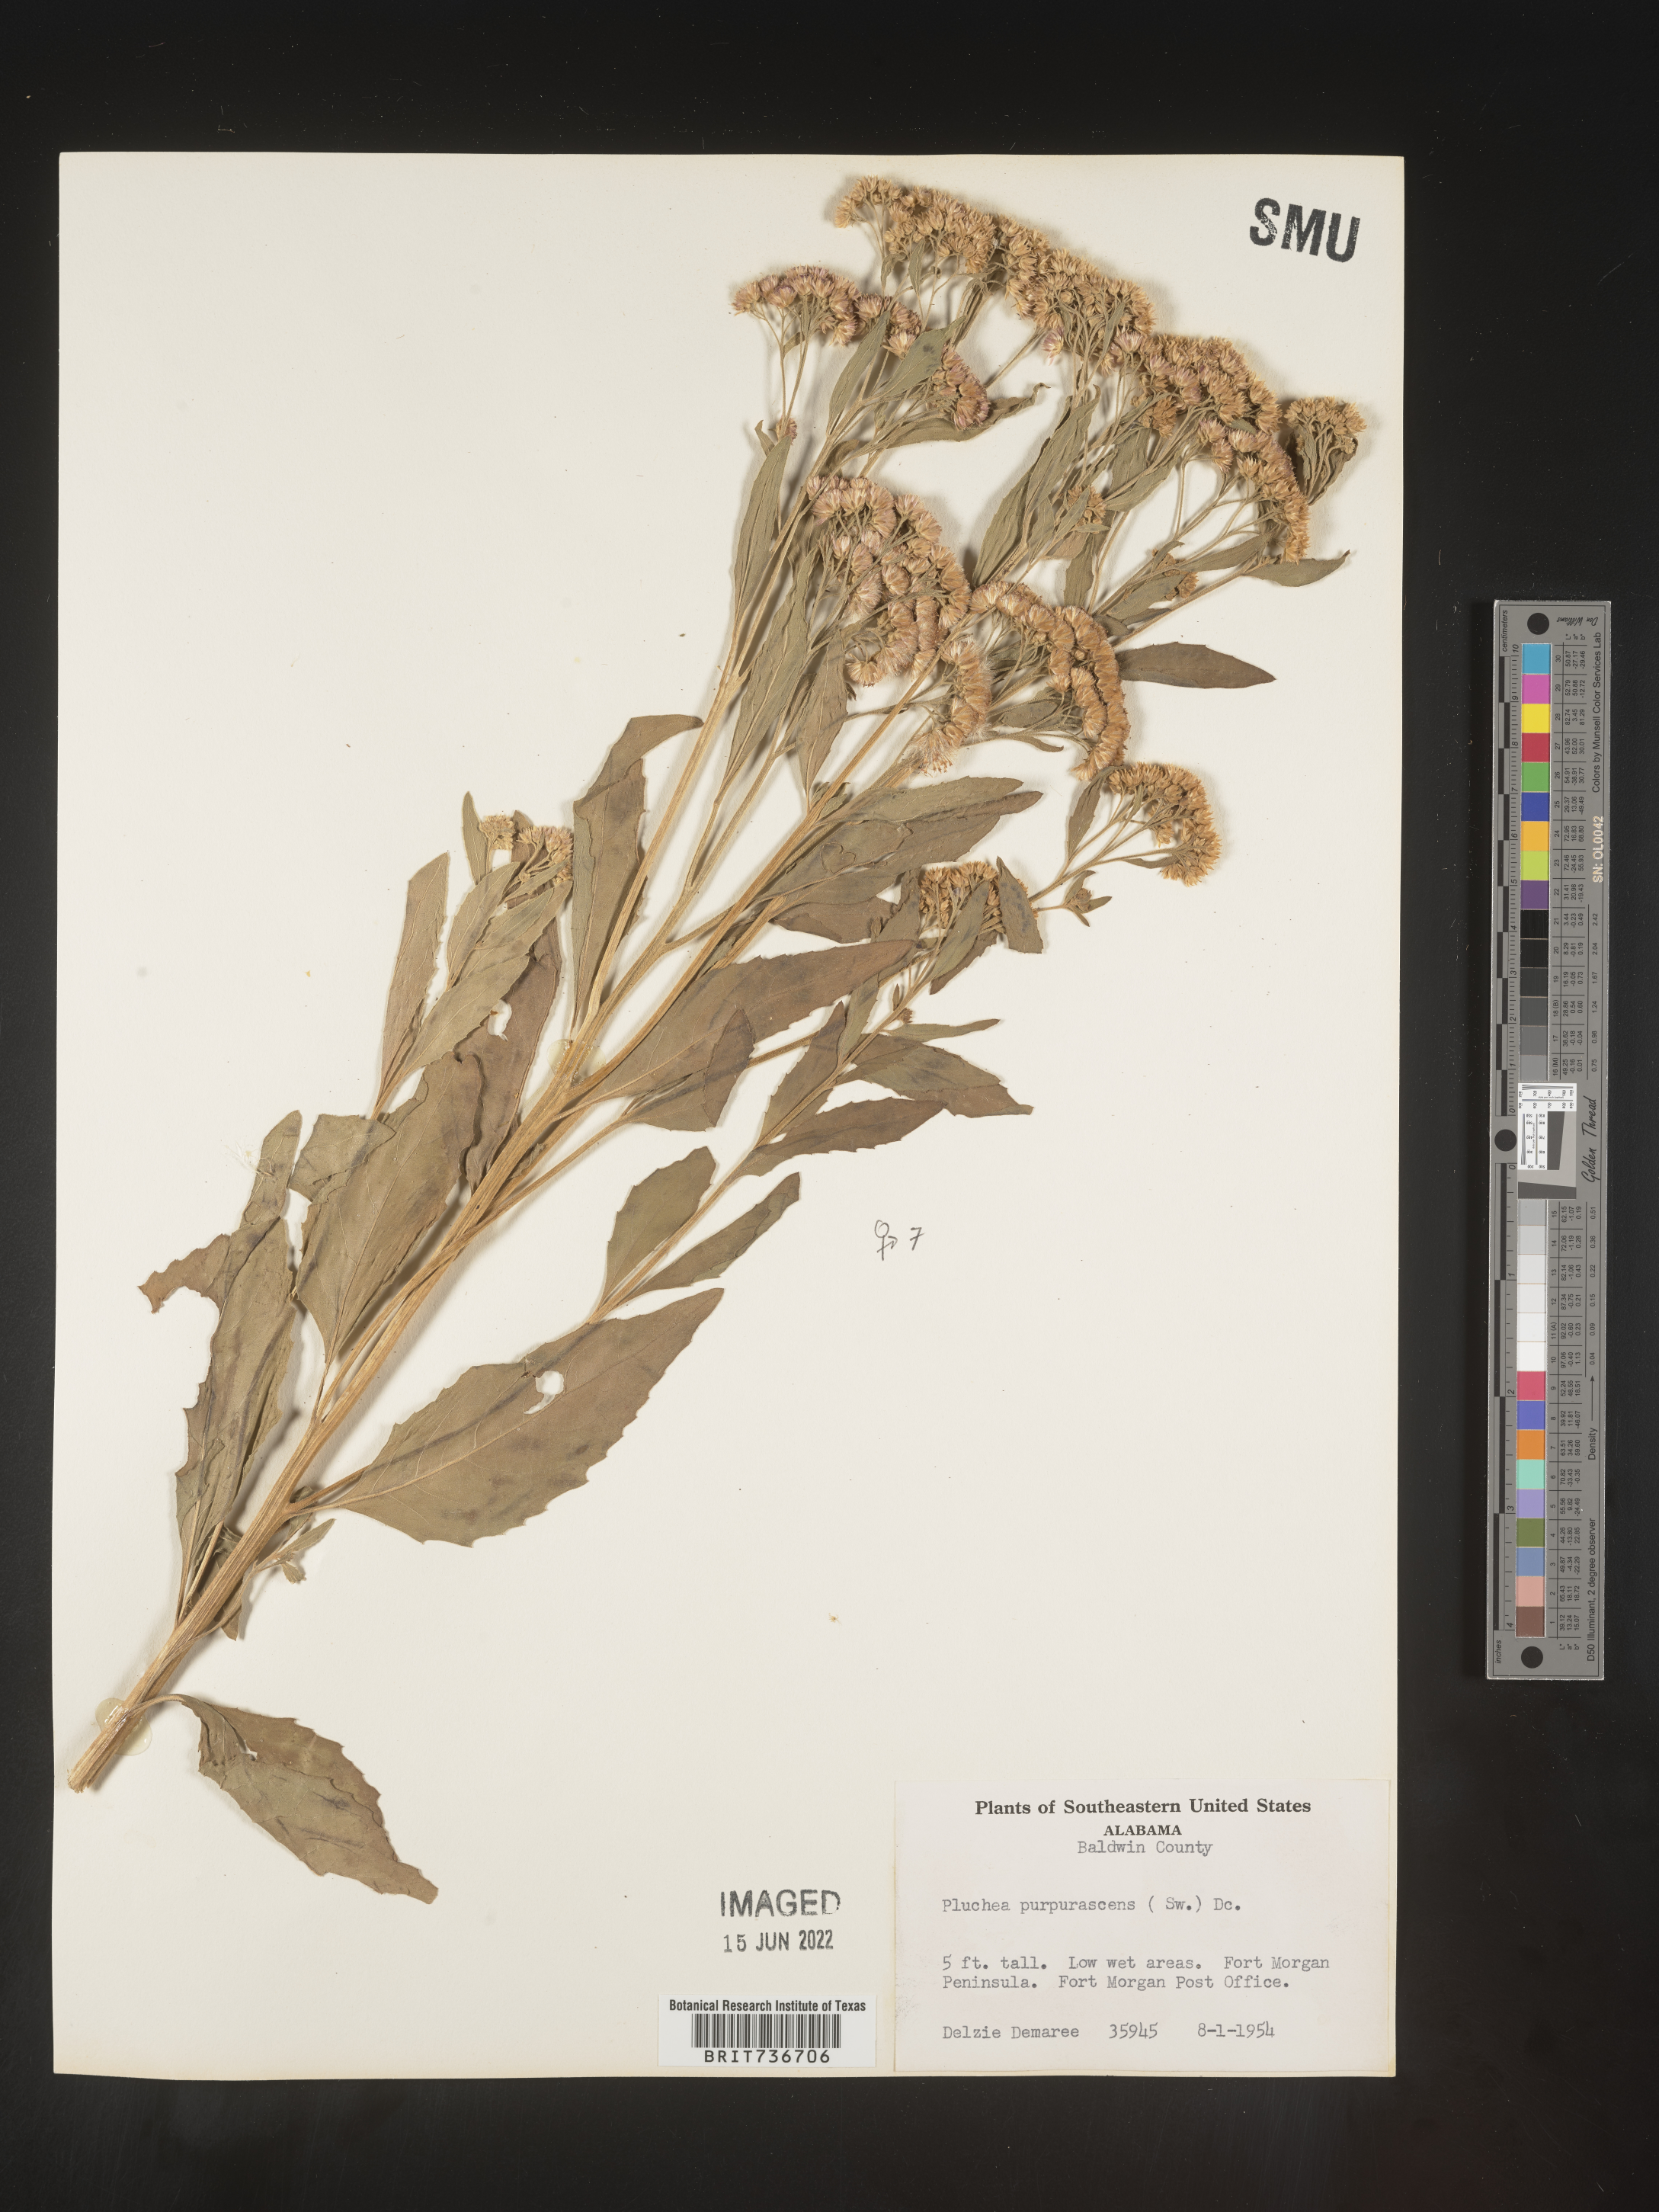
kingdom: Plantae
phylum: Tracheophyta
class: Magnoliopsida
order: Asterales
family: Asteraceae
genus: Pluchea
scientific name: Pluchea odorata
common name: Saltmarsh fleabane
